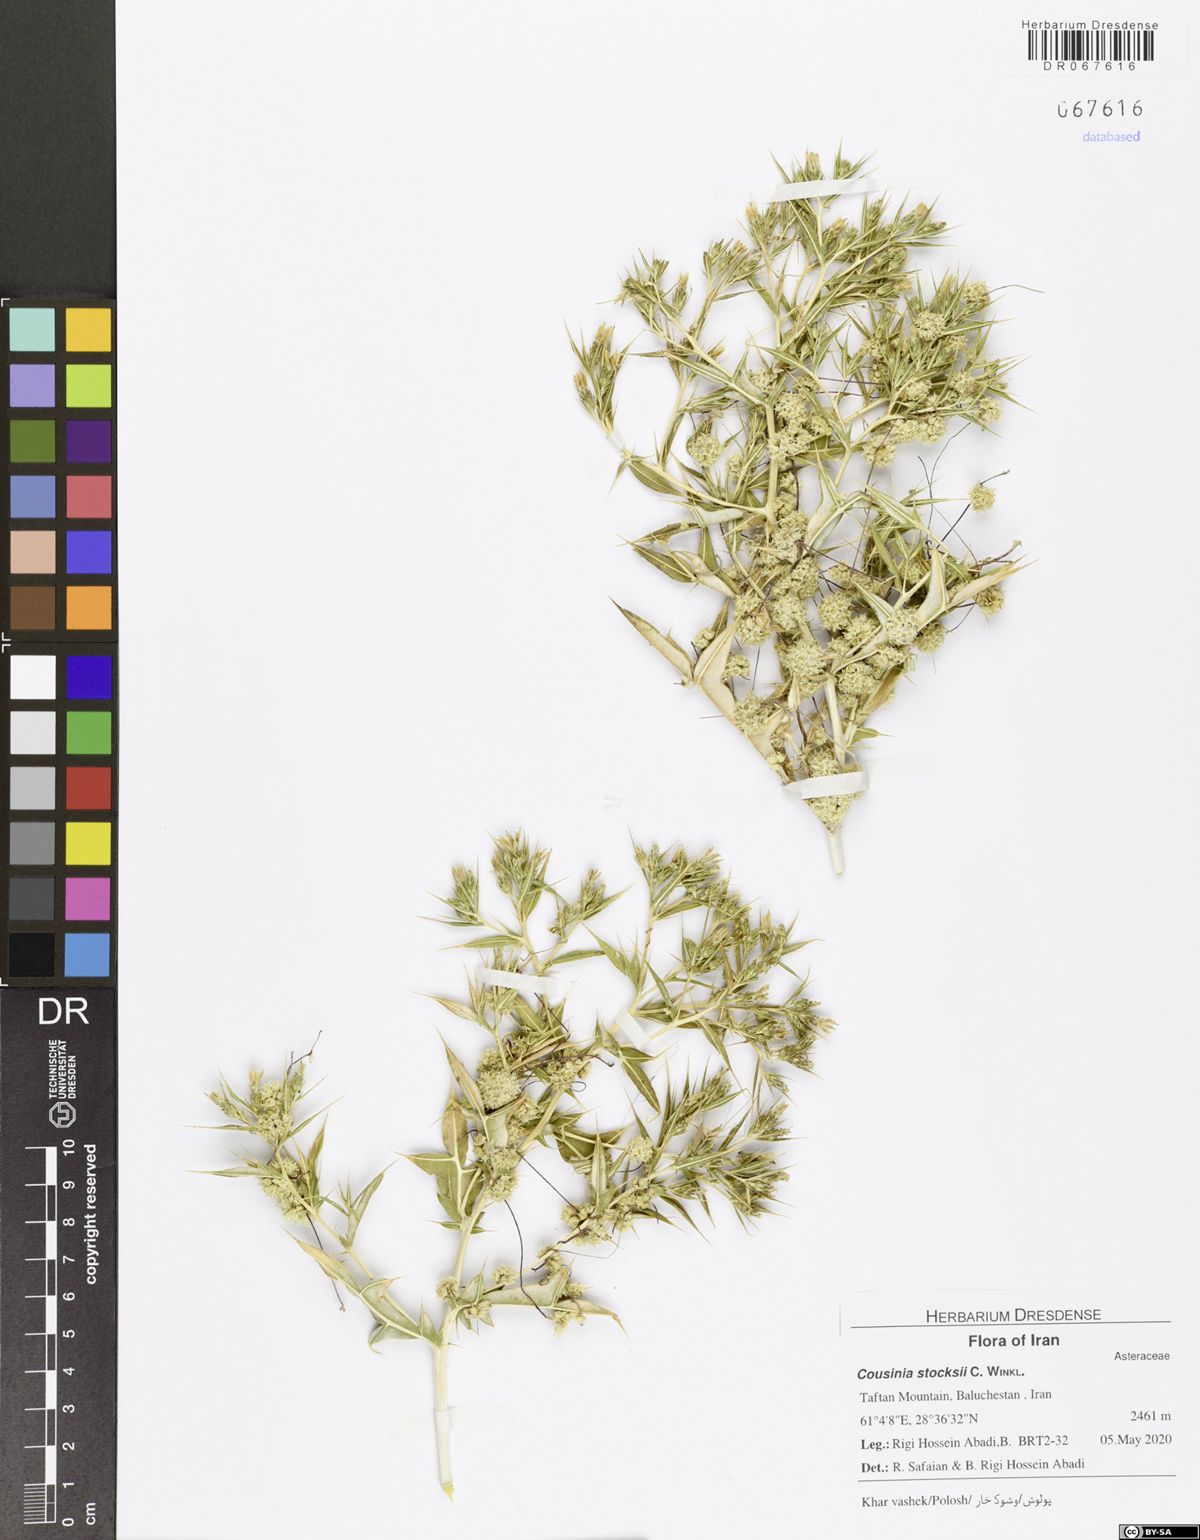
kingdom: Plantae
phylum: Tracheophyta
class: Magnoliopsida
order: Asterales
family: Asteraceae
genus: Cousinia
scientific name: Cousinia stocksii
